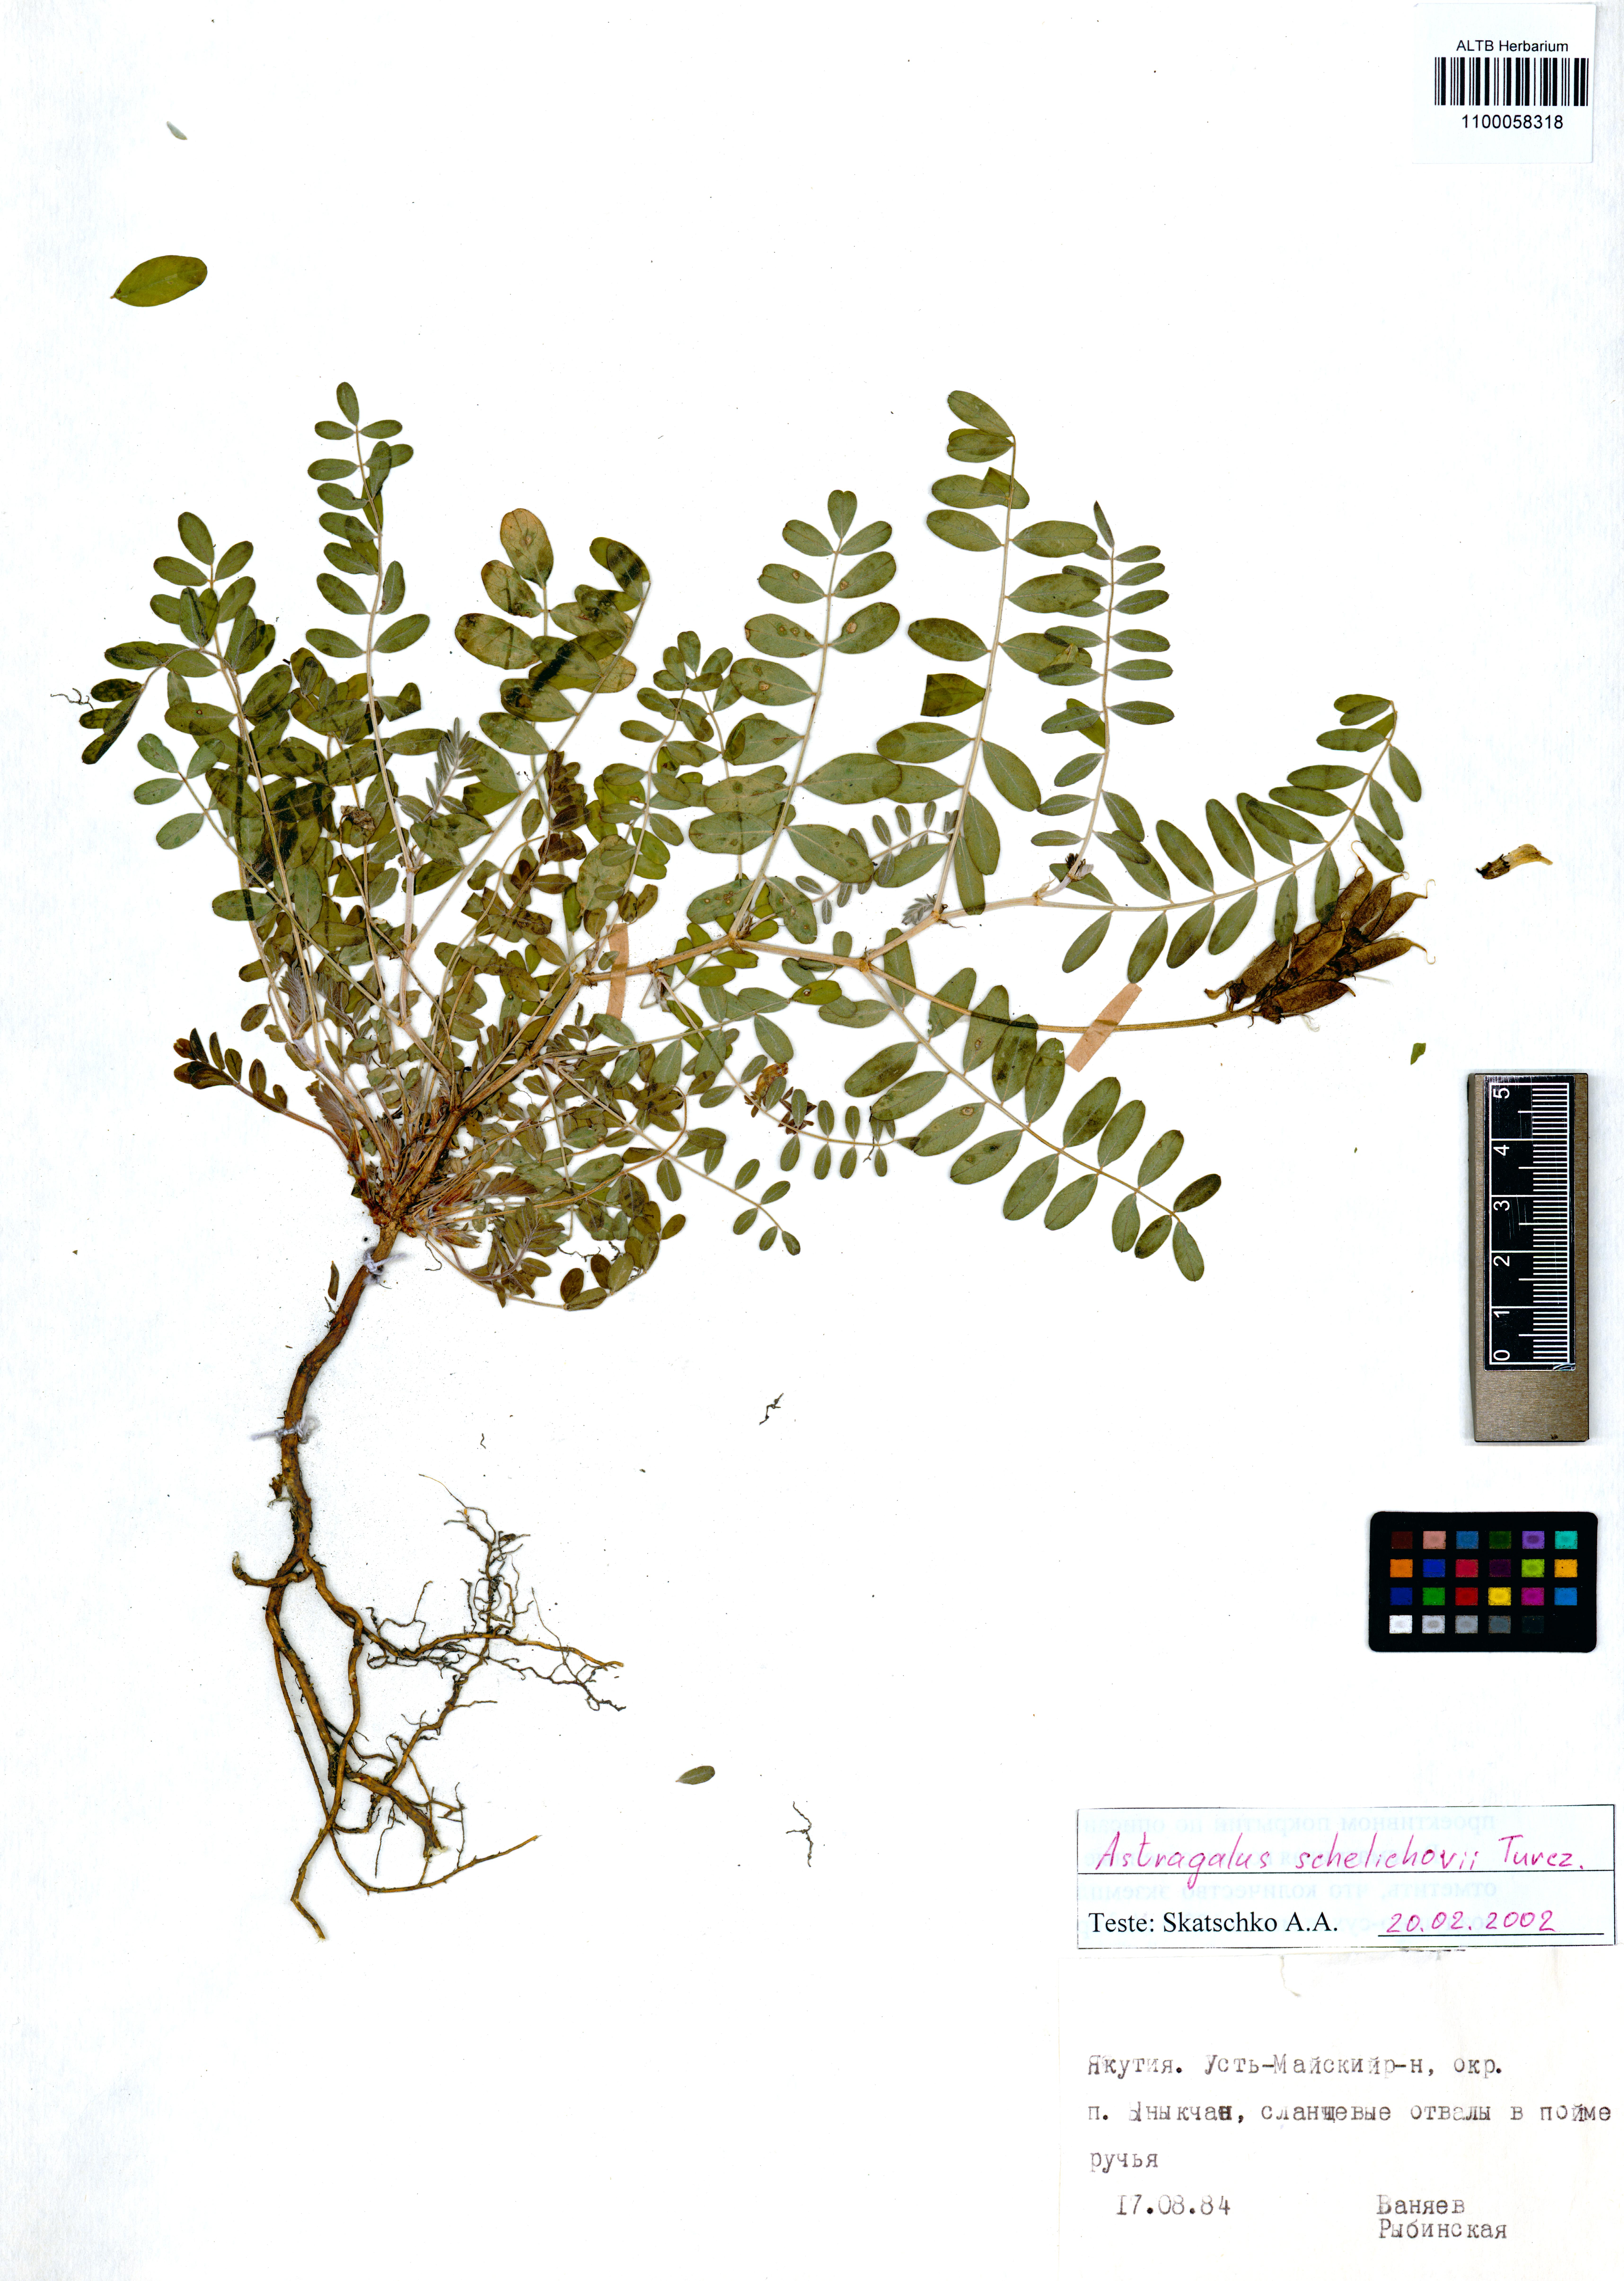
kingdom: Plantae
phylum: Tracheophyta
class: Magnoliopsida
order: Fabales
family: Fabaceae
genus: Astragalus
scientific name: Astragalus schelichowii
